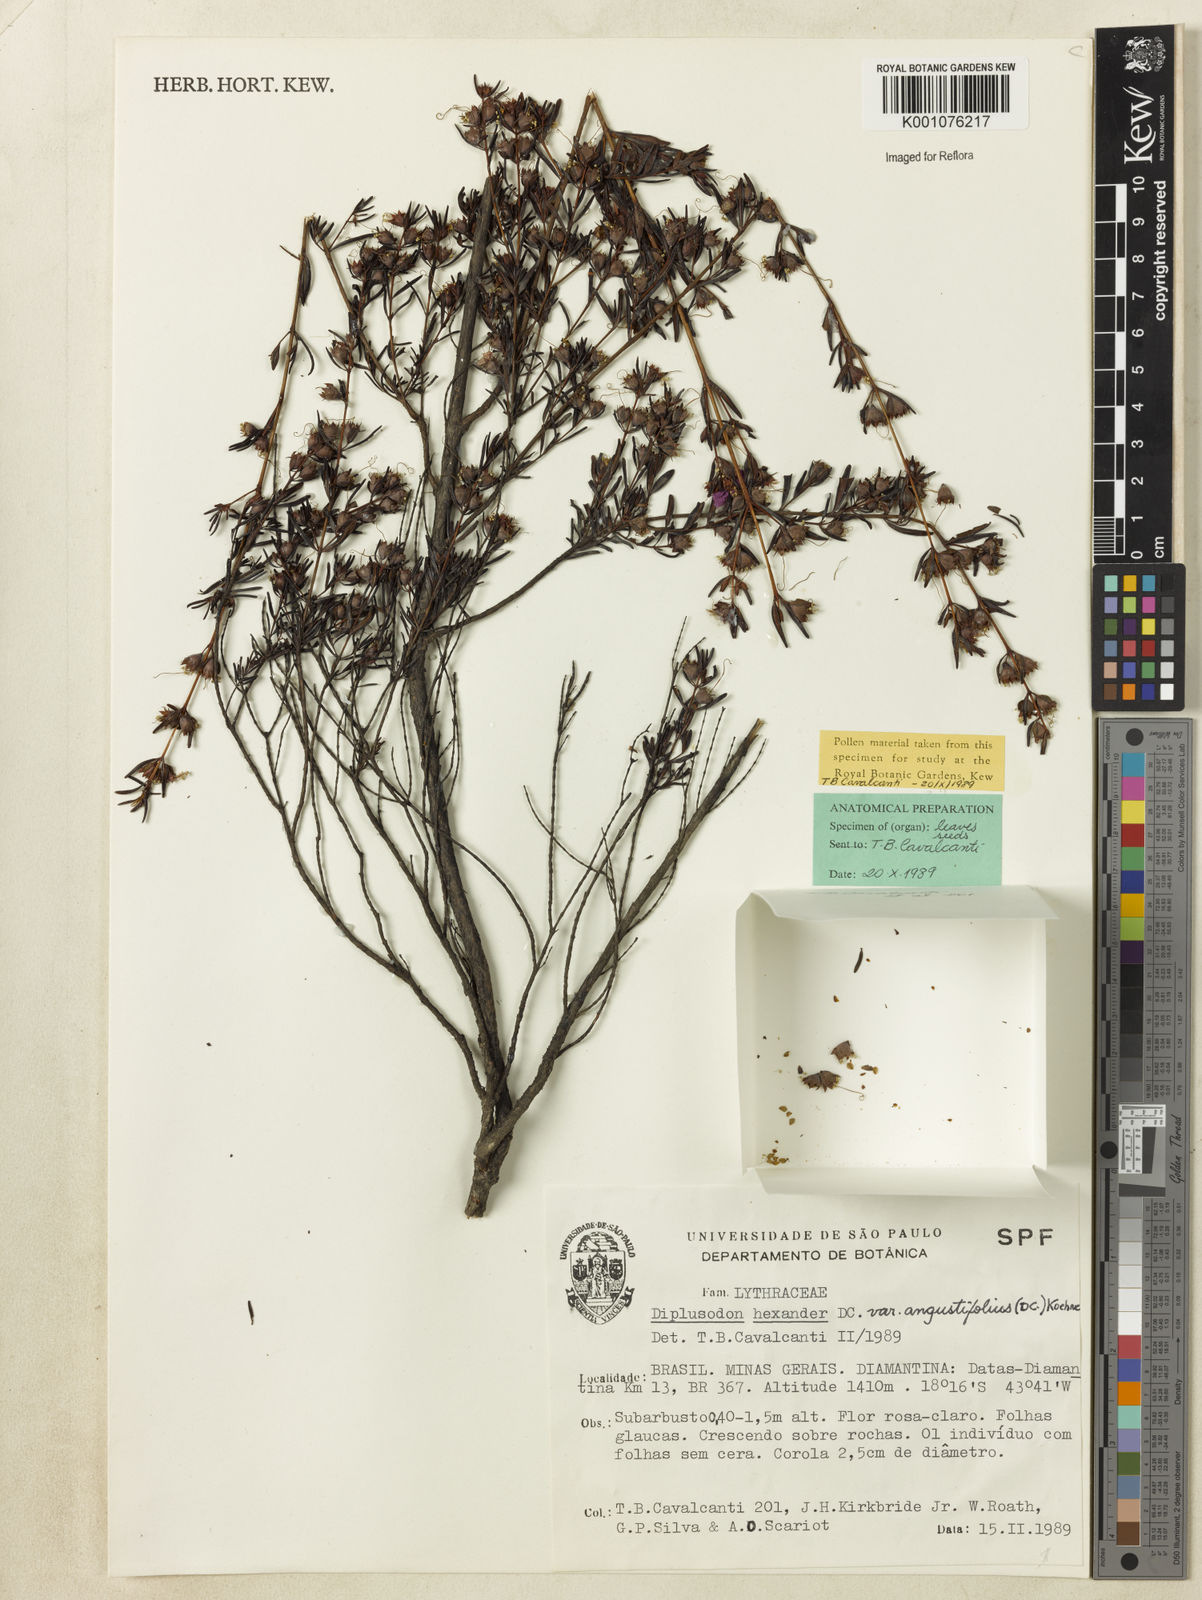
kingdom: Plantae
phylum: Tracheophyta
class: Magnoliopsida
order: Myrtales
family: Lythraceae
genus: Diplusodon
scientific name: Diplusodon hexander
